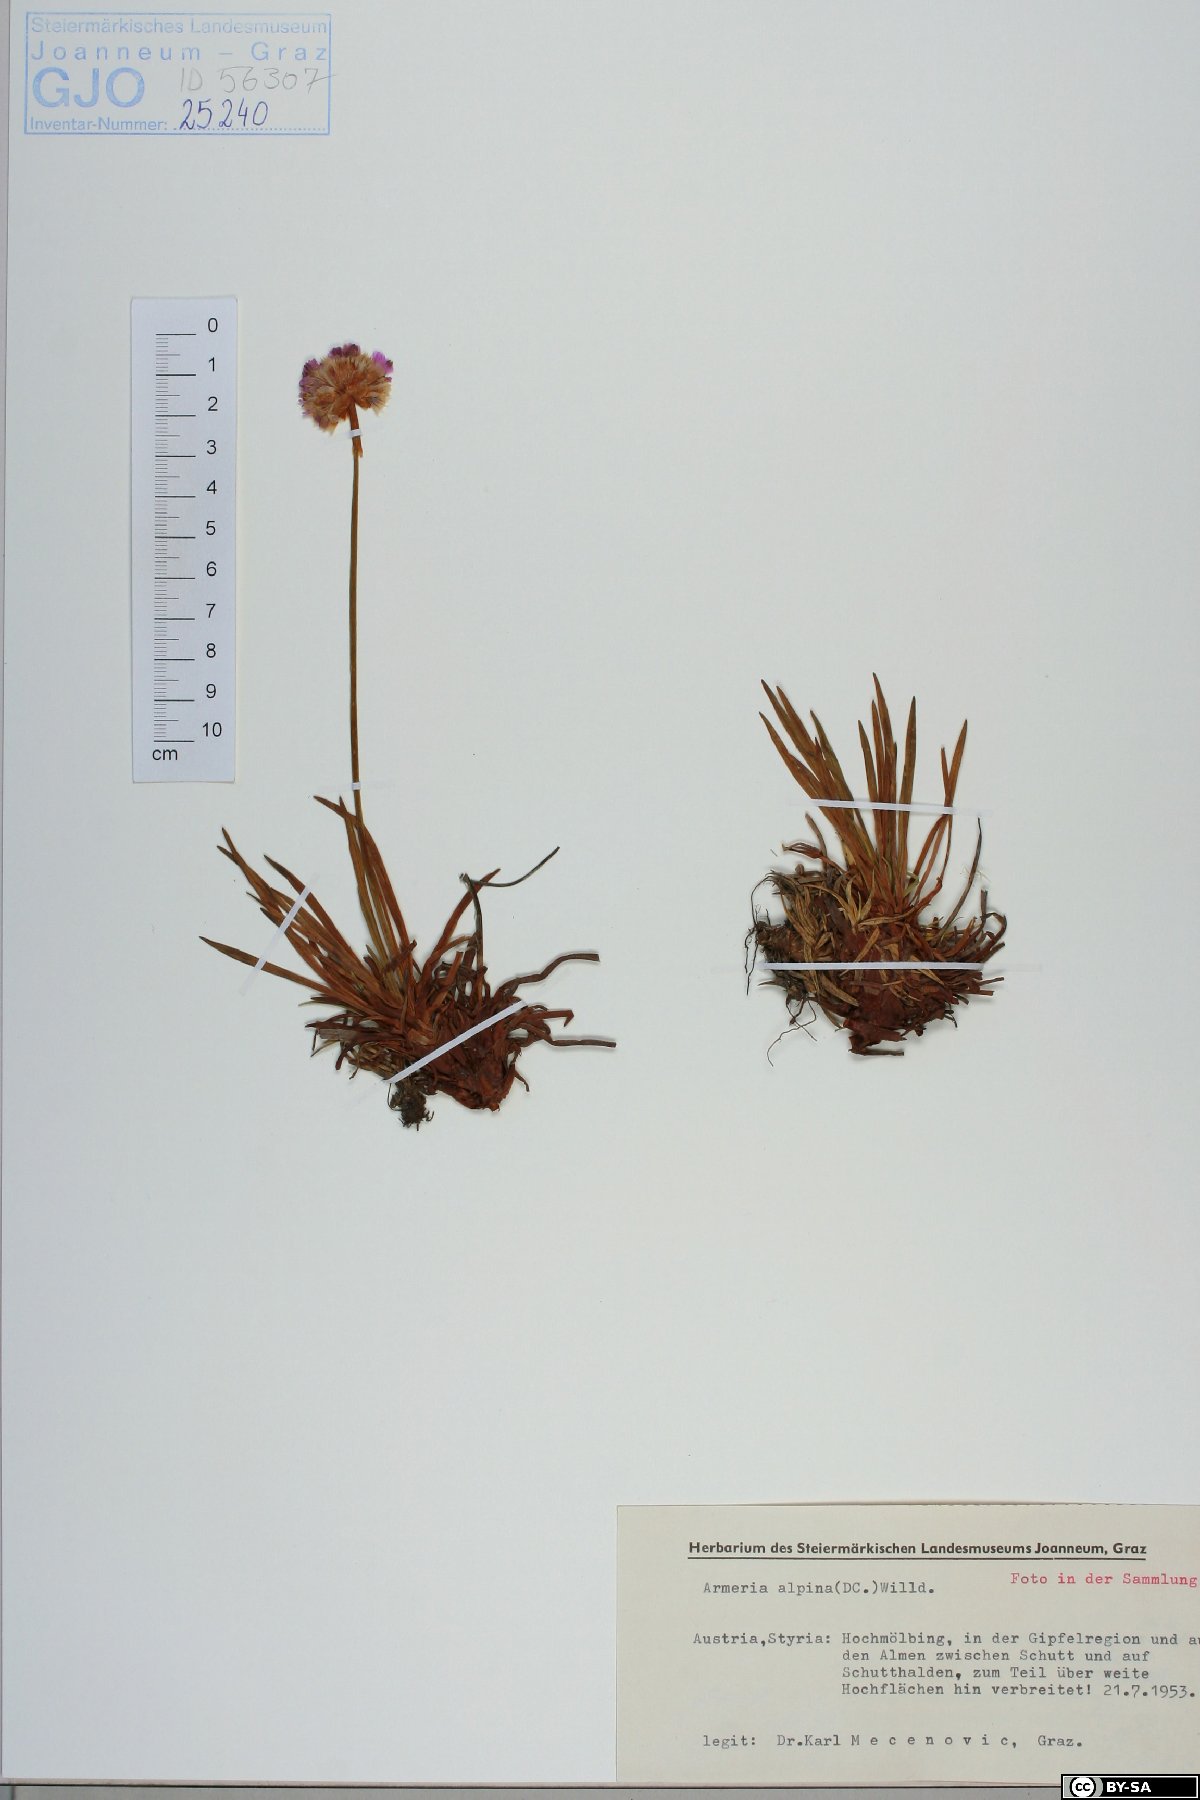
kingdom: Plantae
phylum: Tracheophyta
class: Magnoliopsida
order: Caryophyllales
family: Plumbaginaceae
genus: Armeria
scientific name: Armeria alpina
